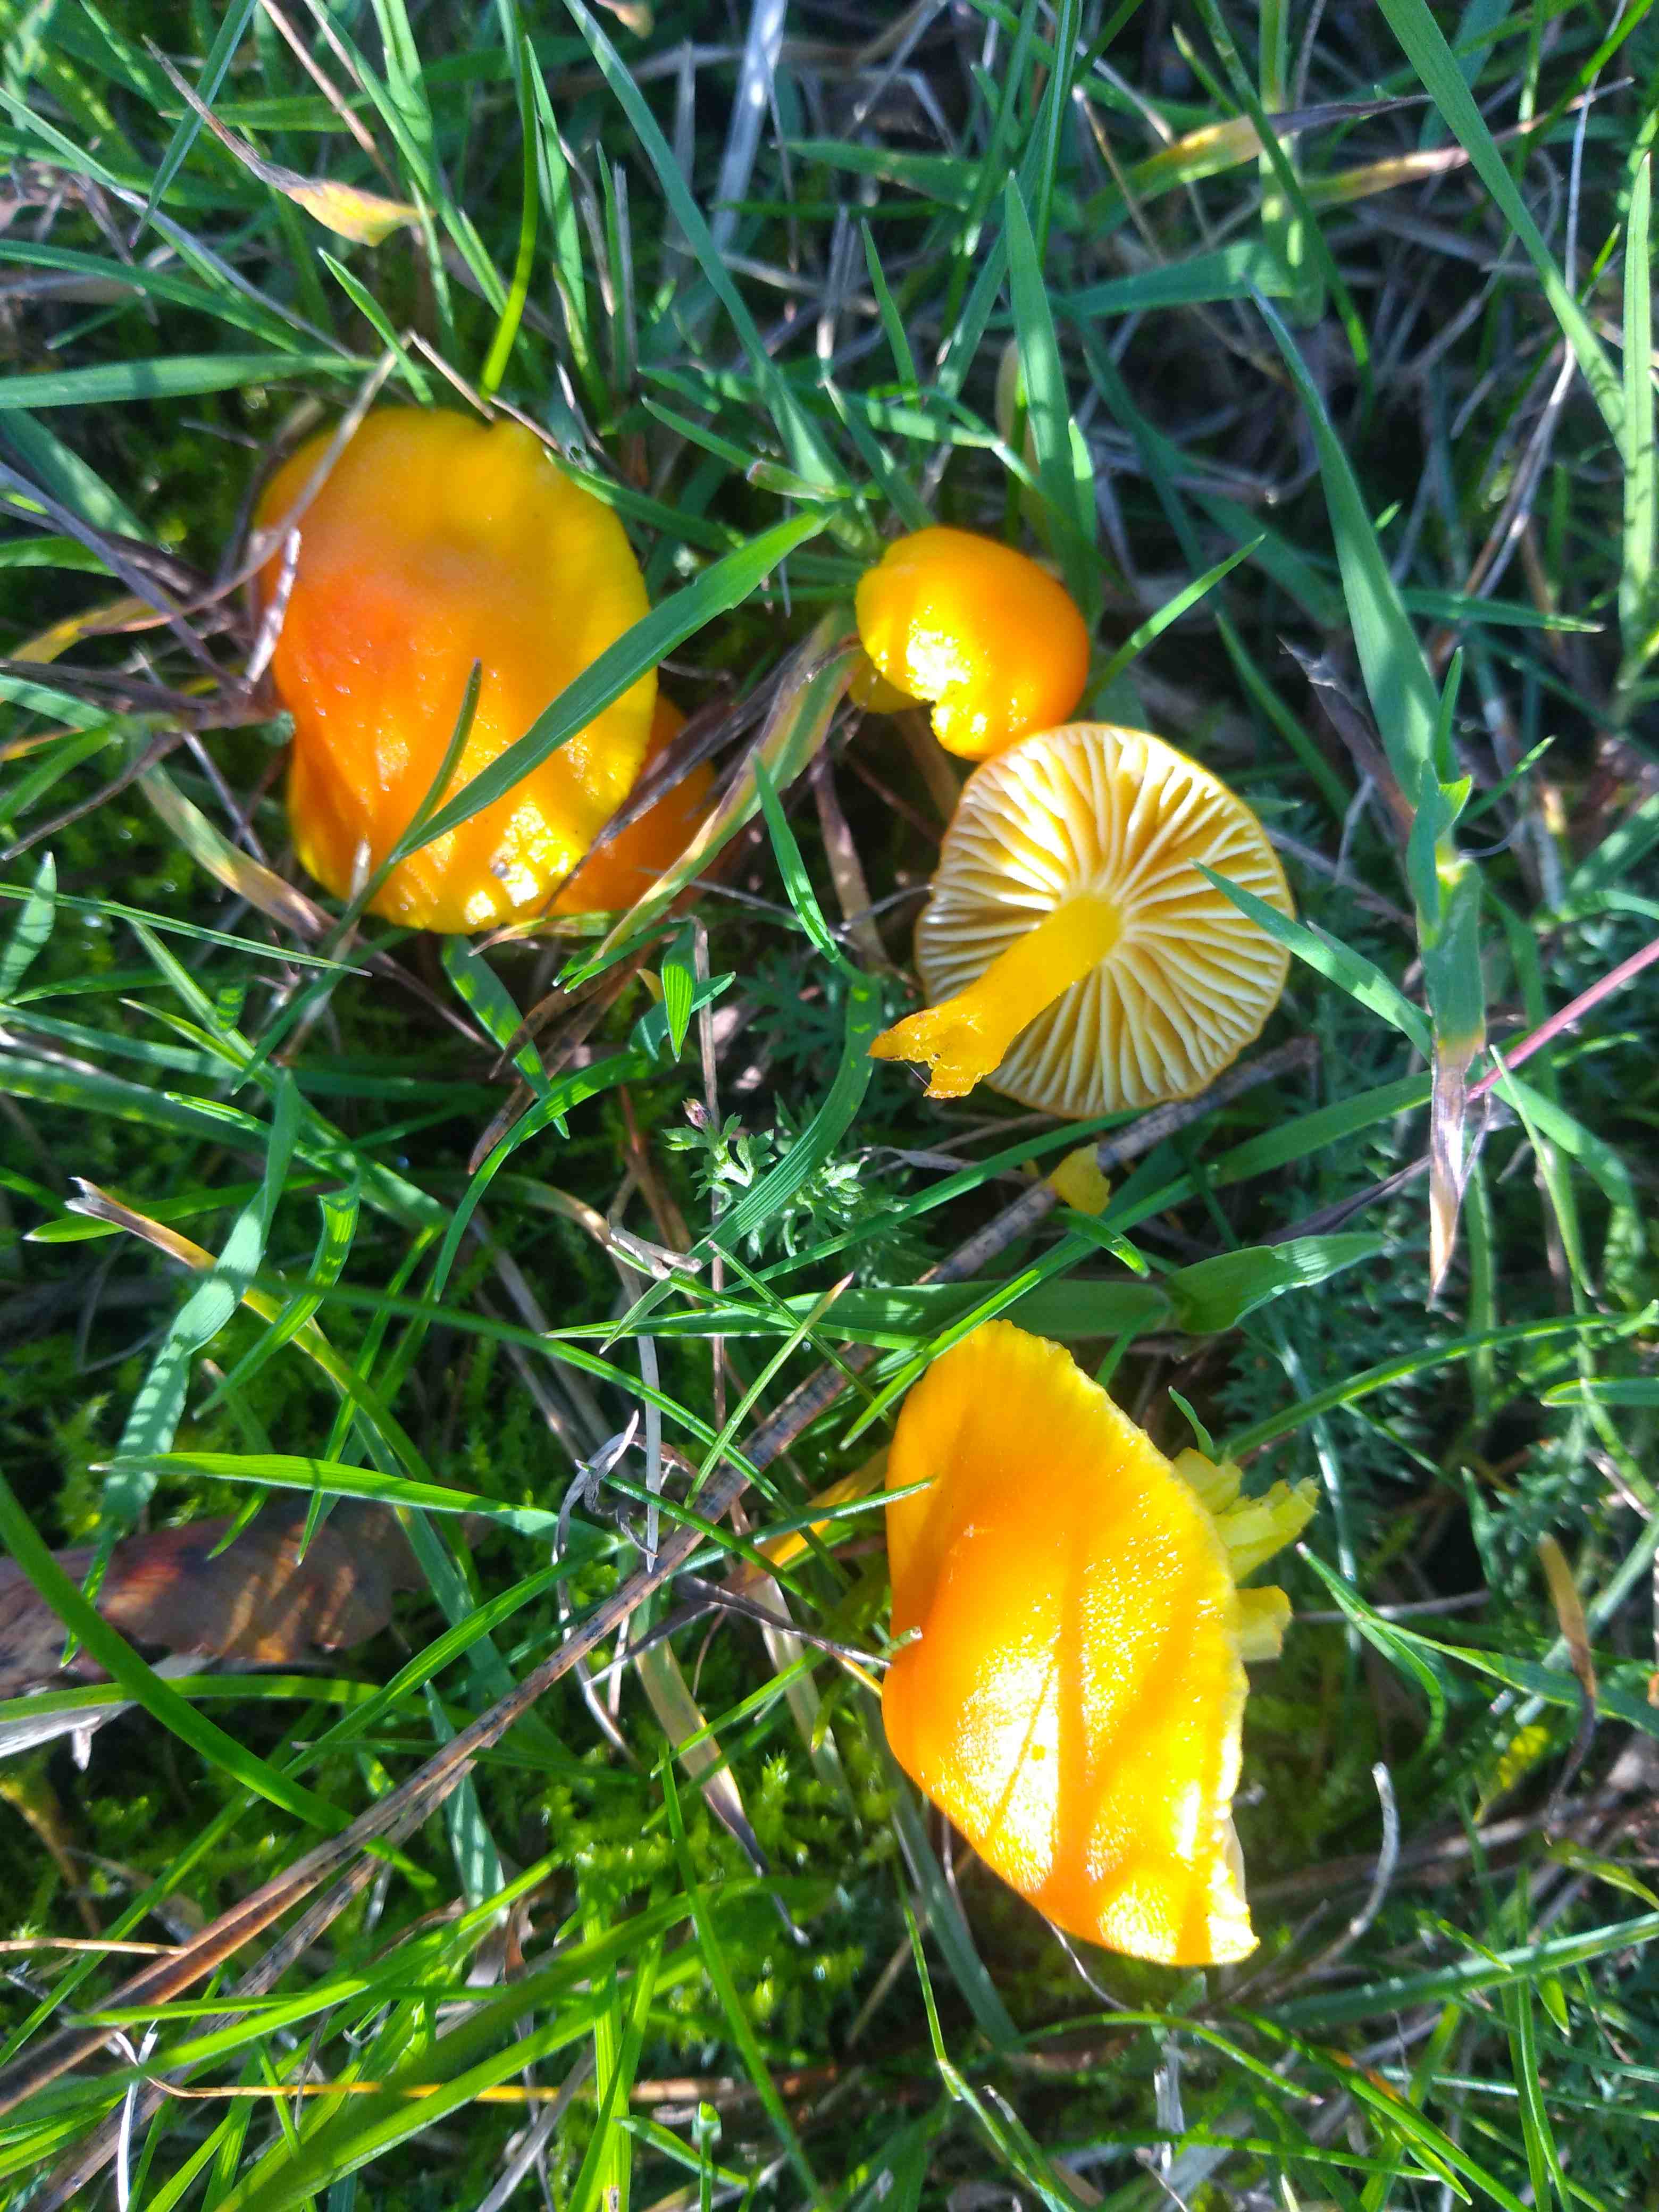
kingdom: Fungi
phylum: Basidiomycota
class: Agaricomycetes
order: Agaricales
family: Hygrophoraceae
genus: Hygrocybe
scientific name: Hygrocybe ceracea
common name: voksgul vokshat
